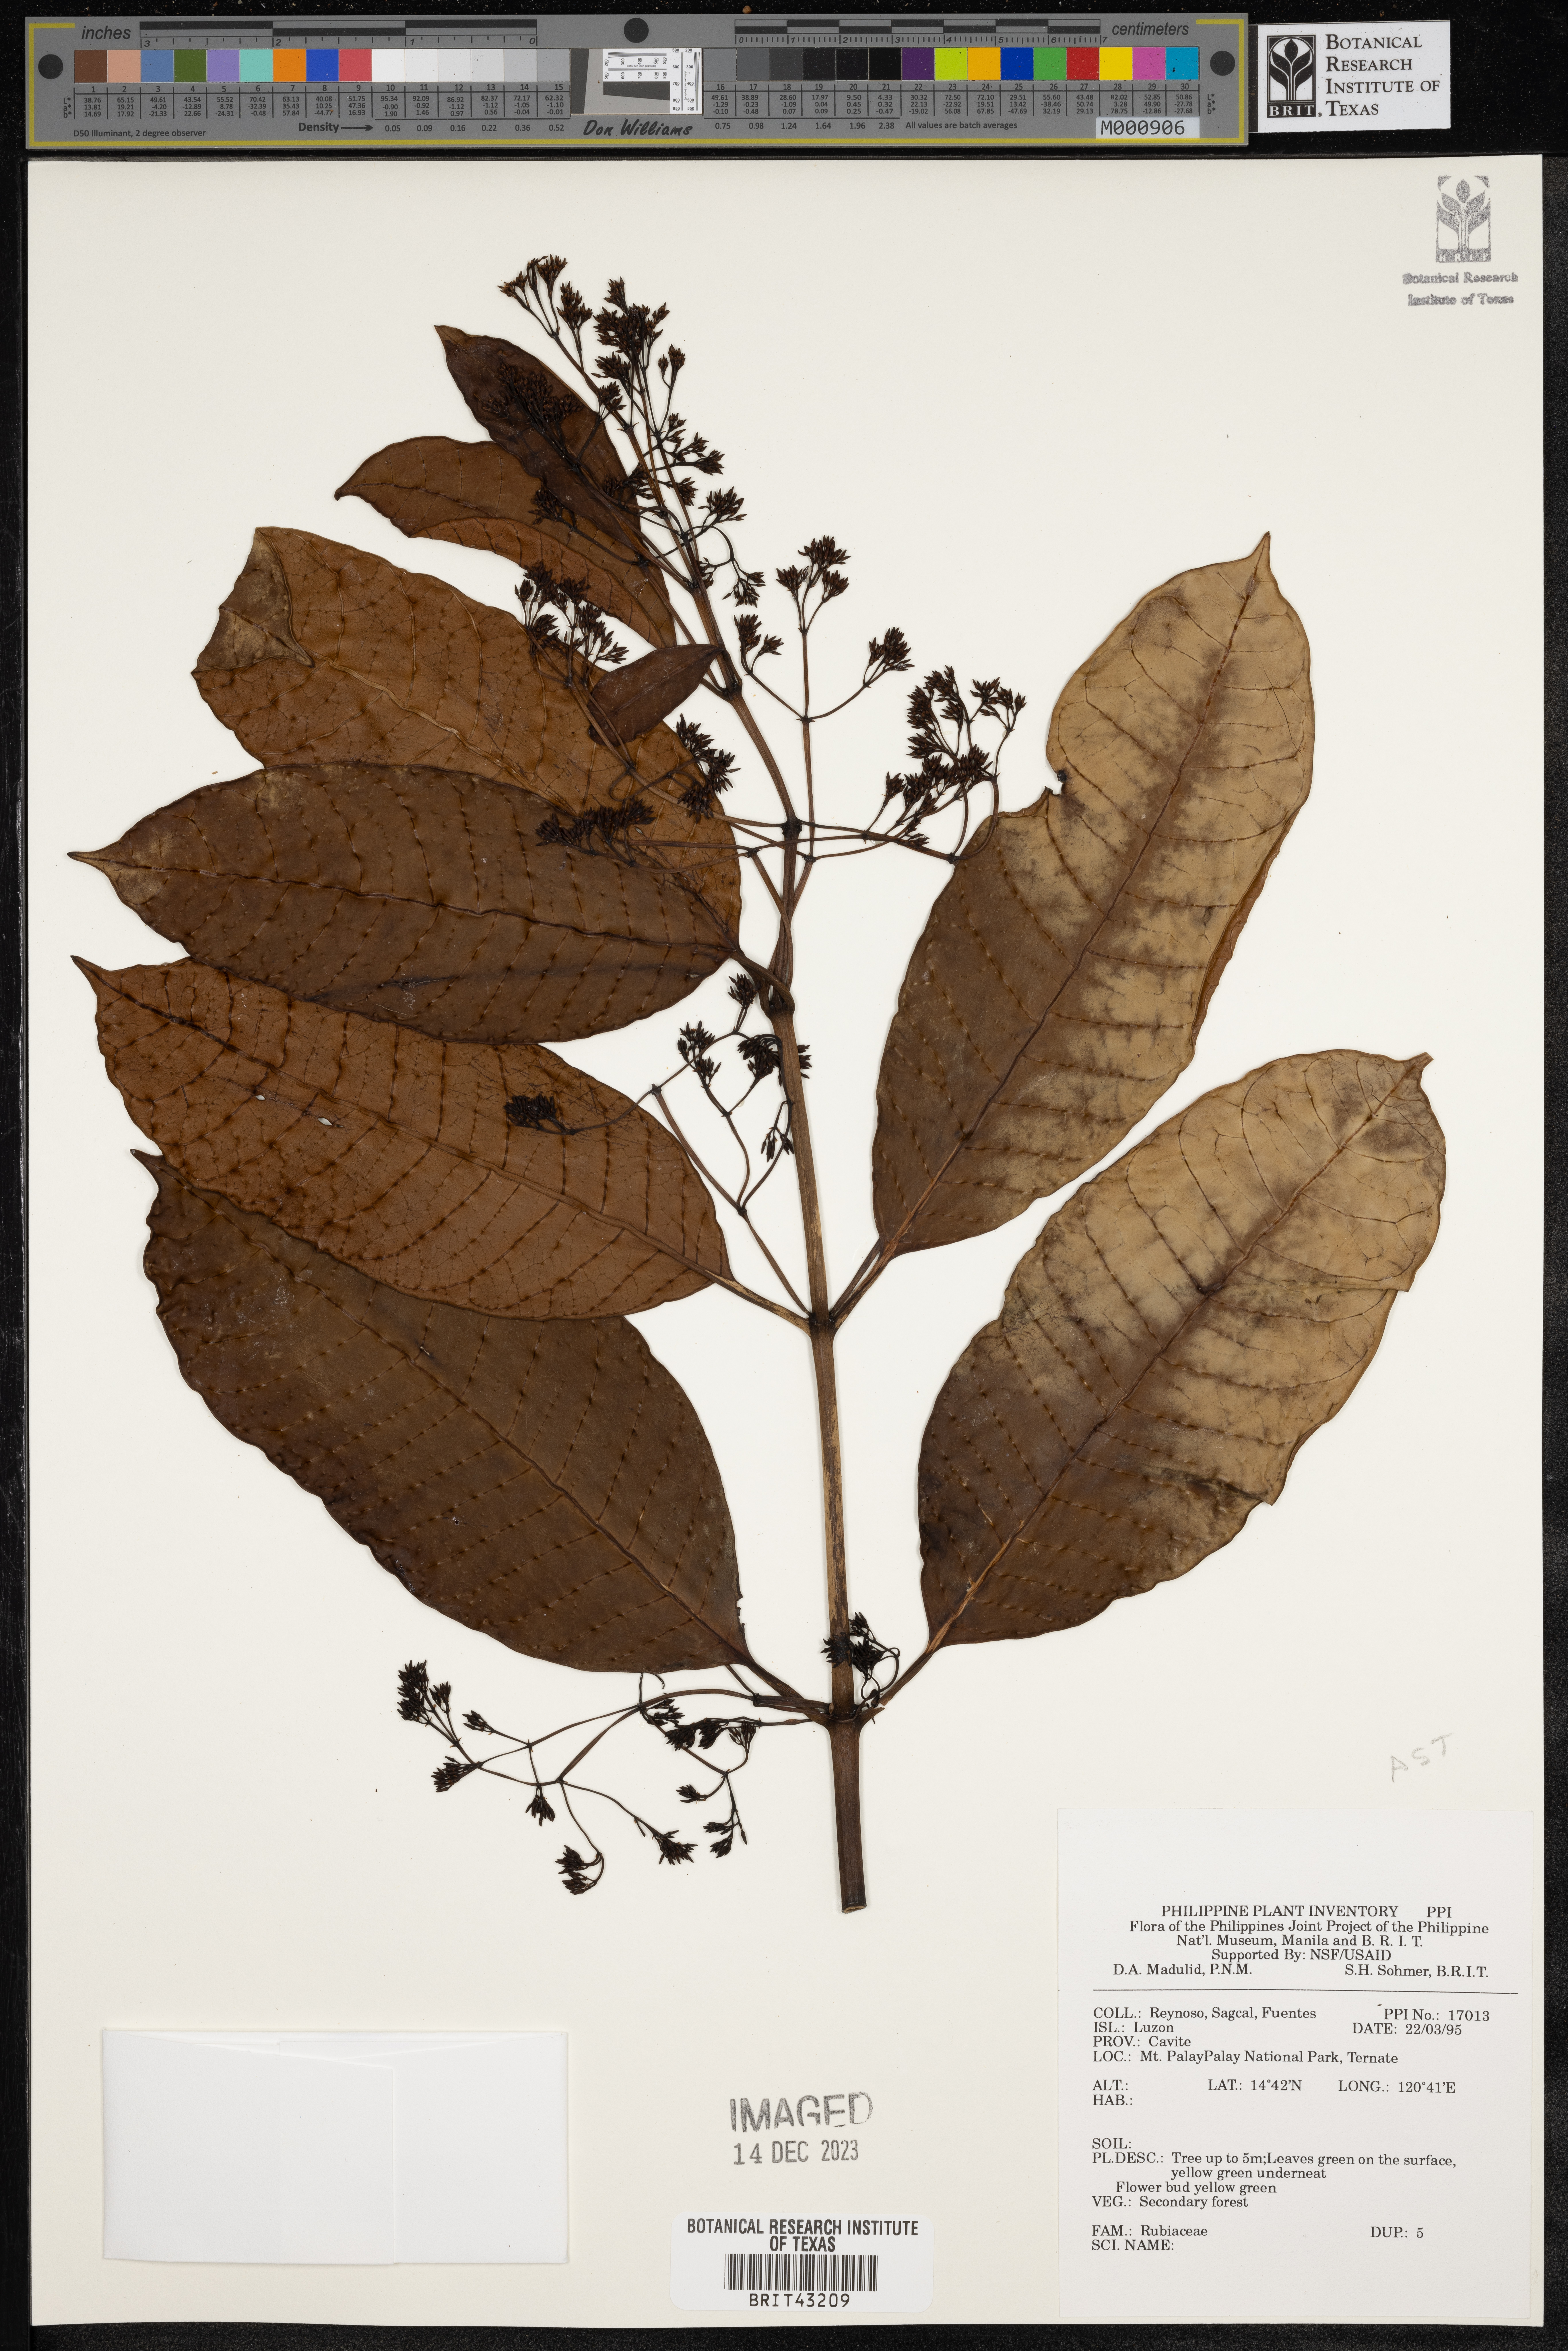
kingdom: Plantae
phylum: Tracheophyta
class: Magnoliopsida
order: Gentianales
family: Rubiaceae
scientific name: Rubiaceae
